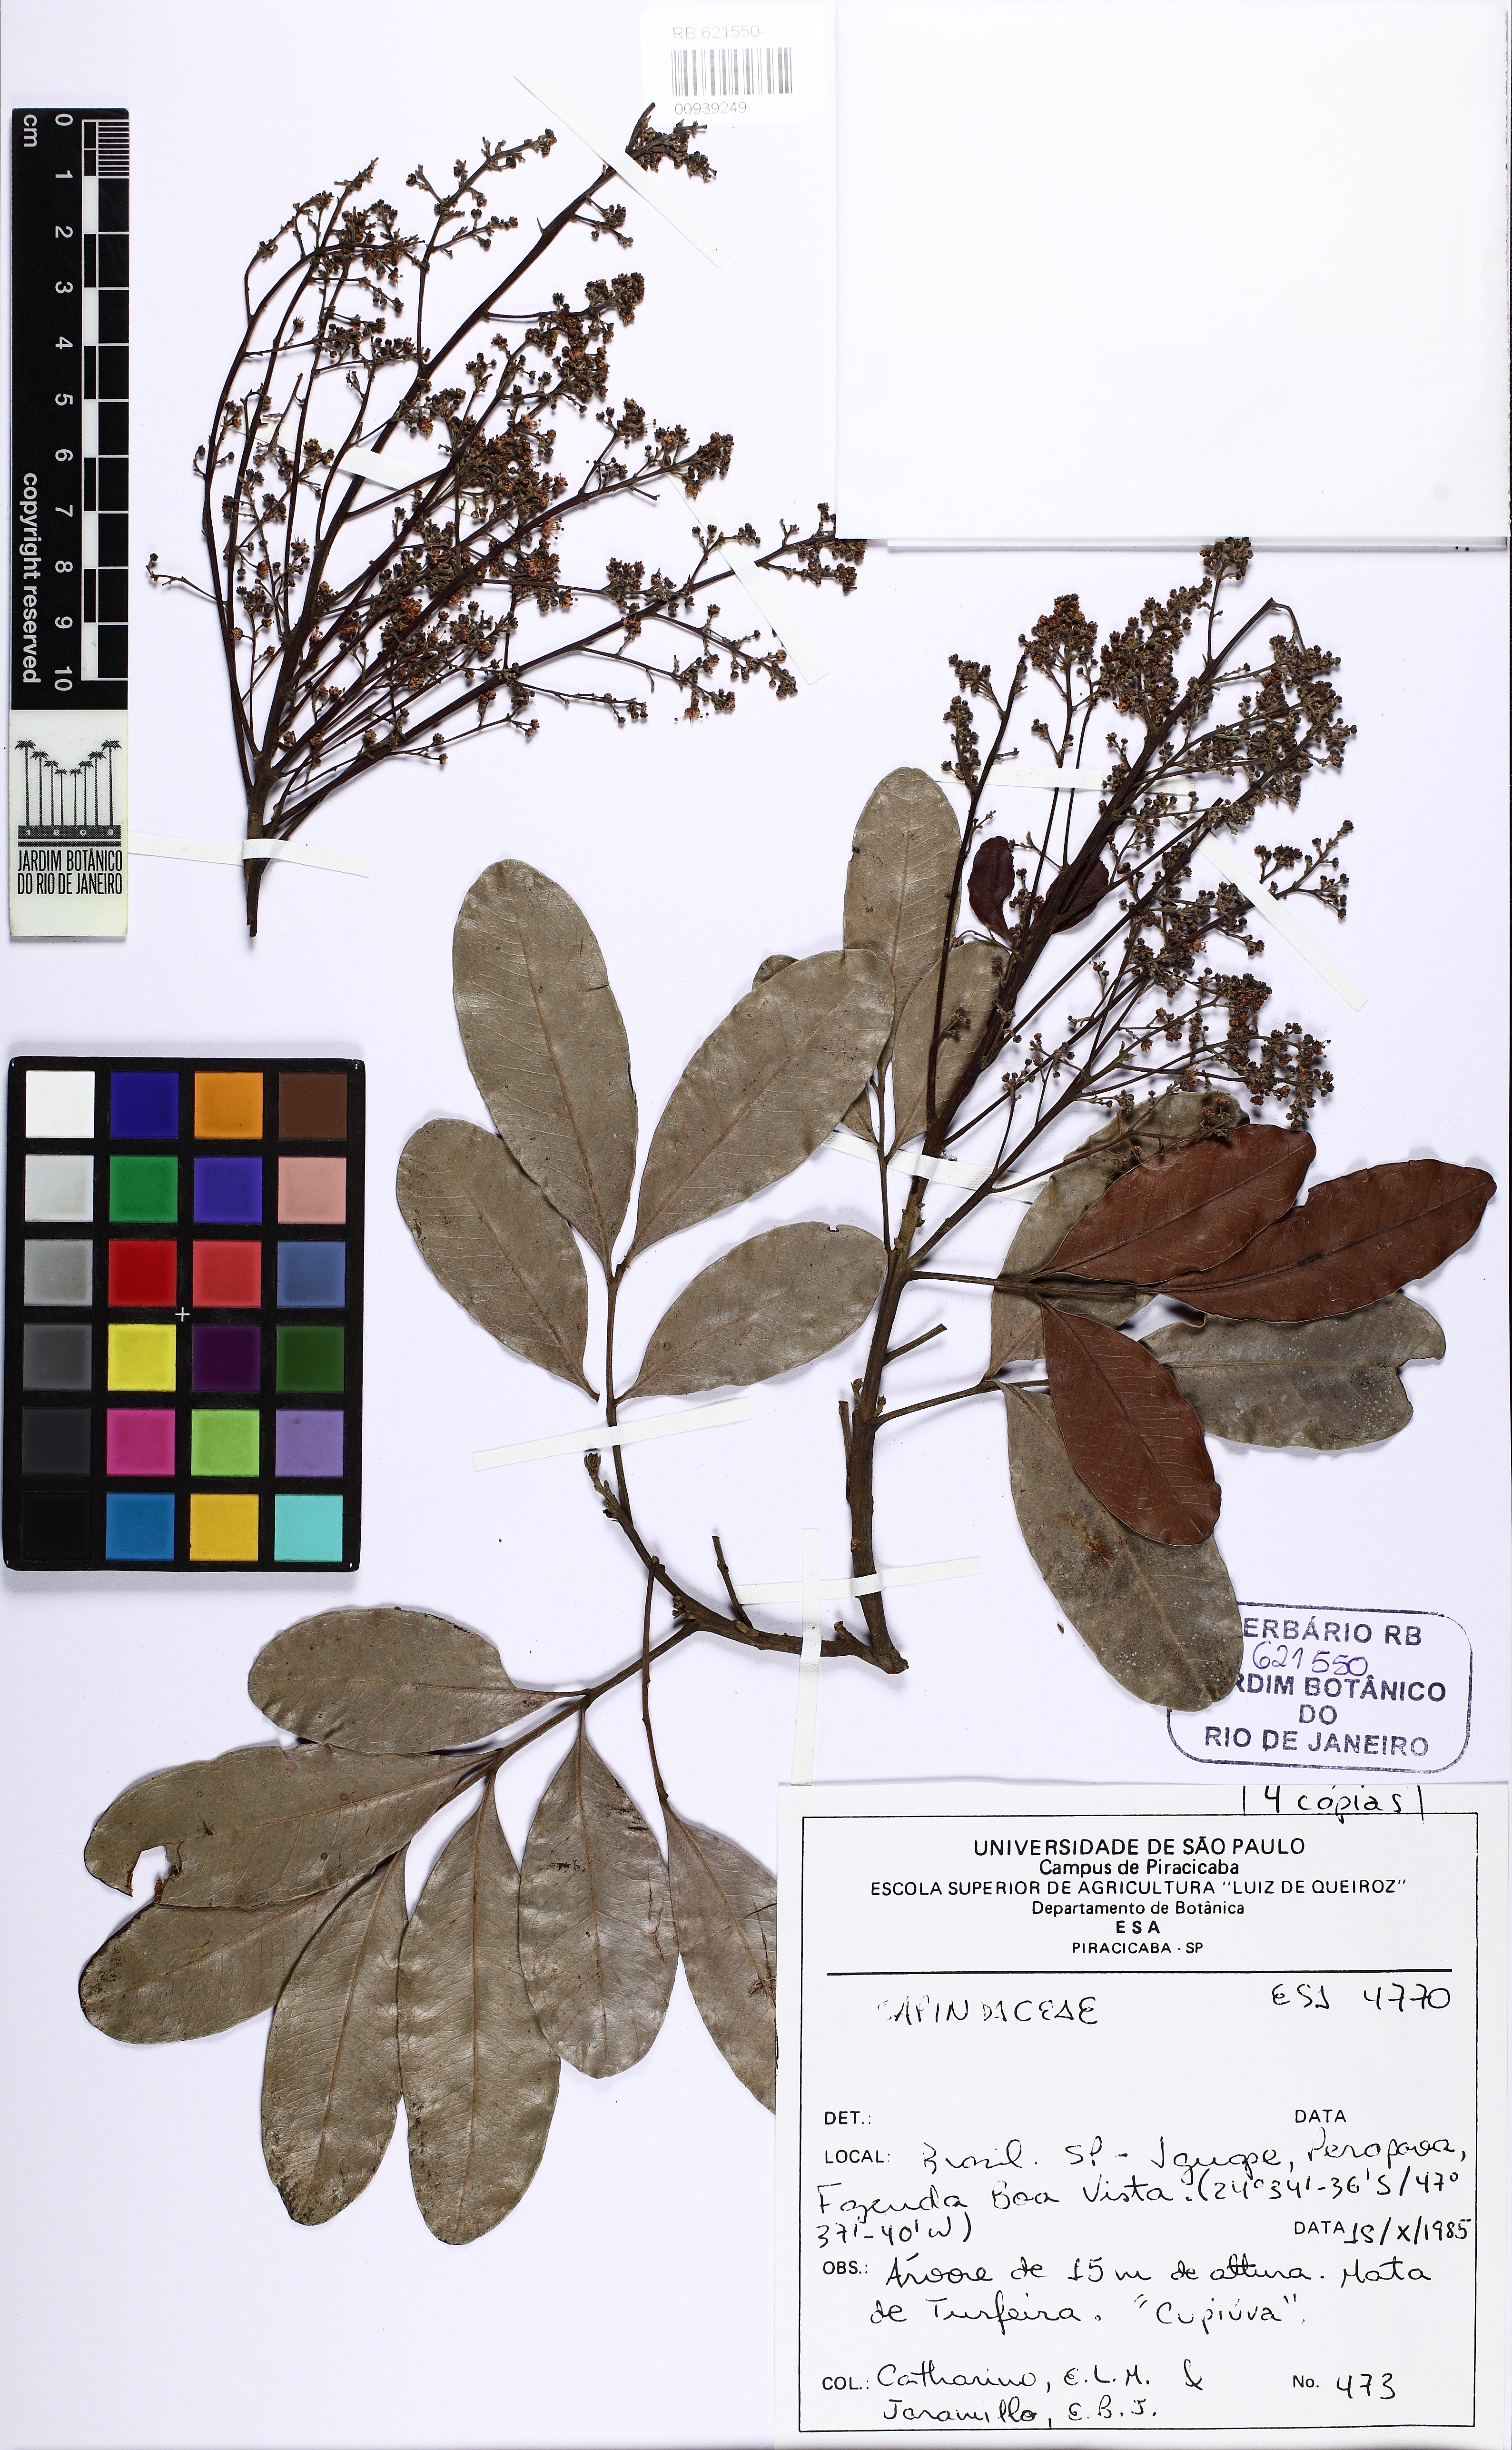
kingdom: Plantae
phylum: Tracheophyta
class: Magnoliopsida
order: Sapindales
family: Sapindaceae
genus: Matayba
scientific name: Matayba intermedia
